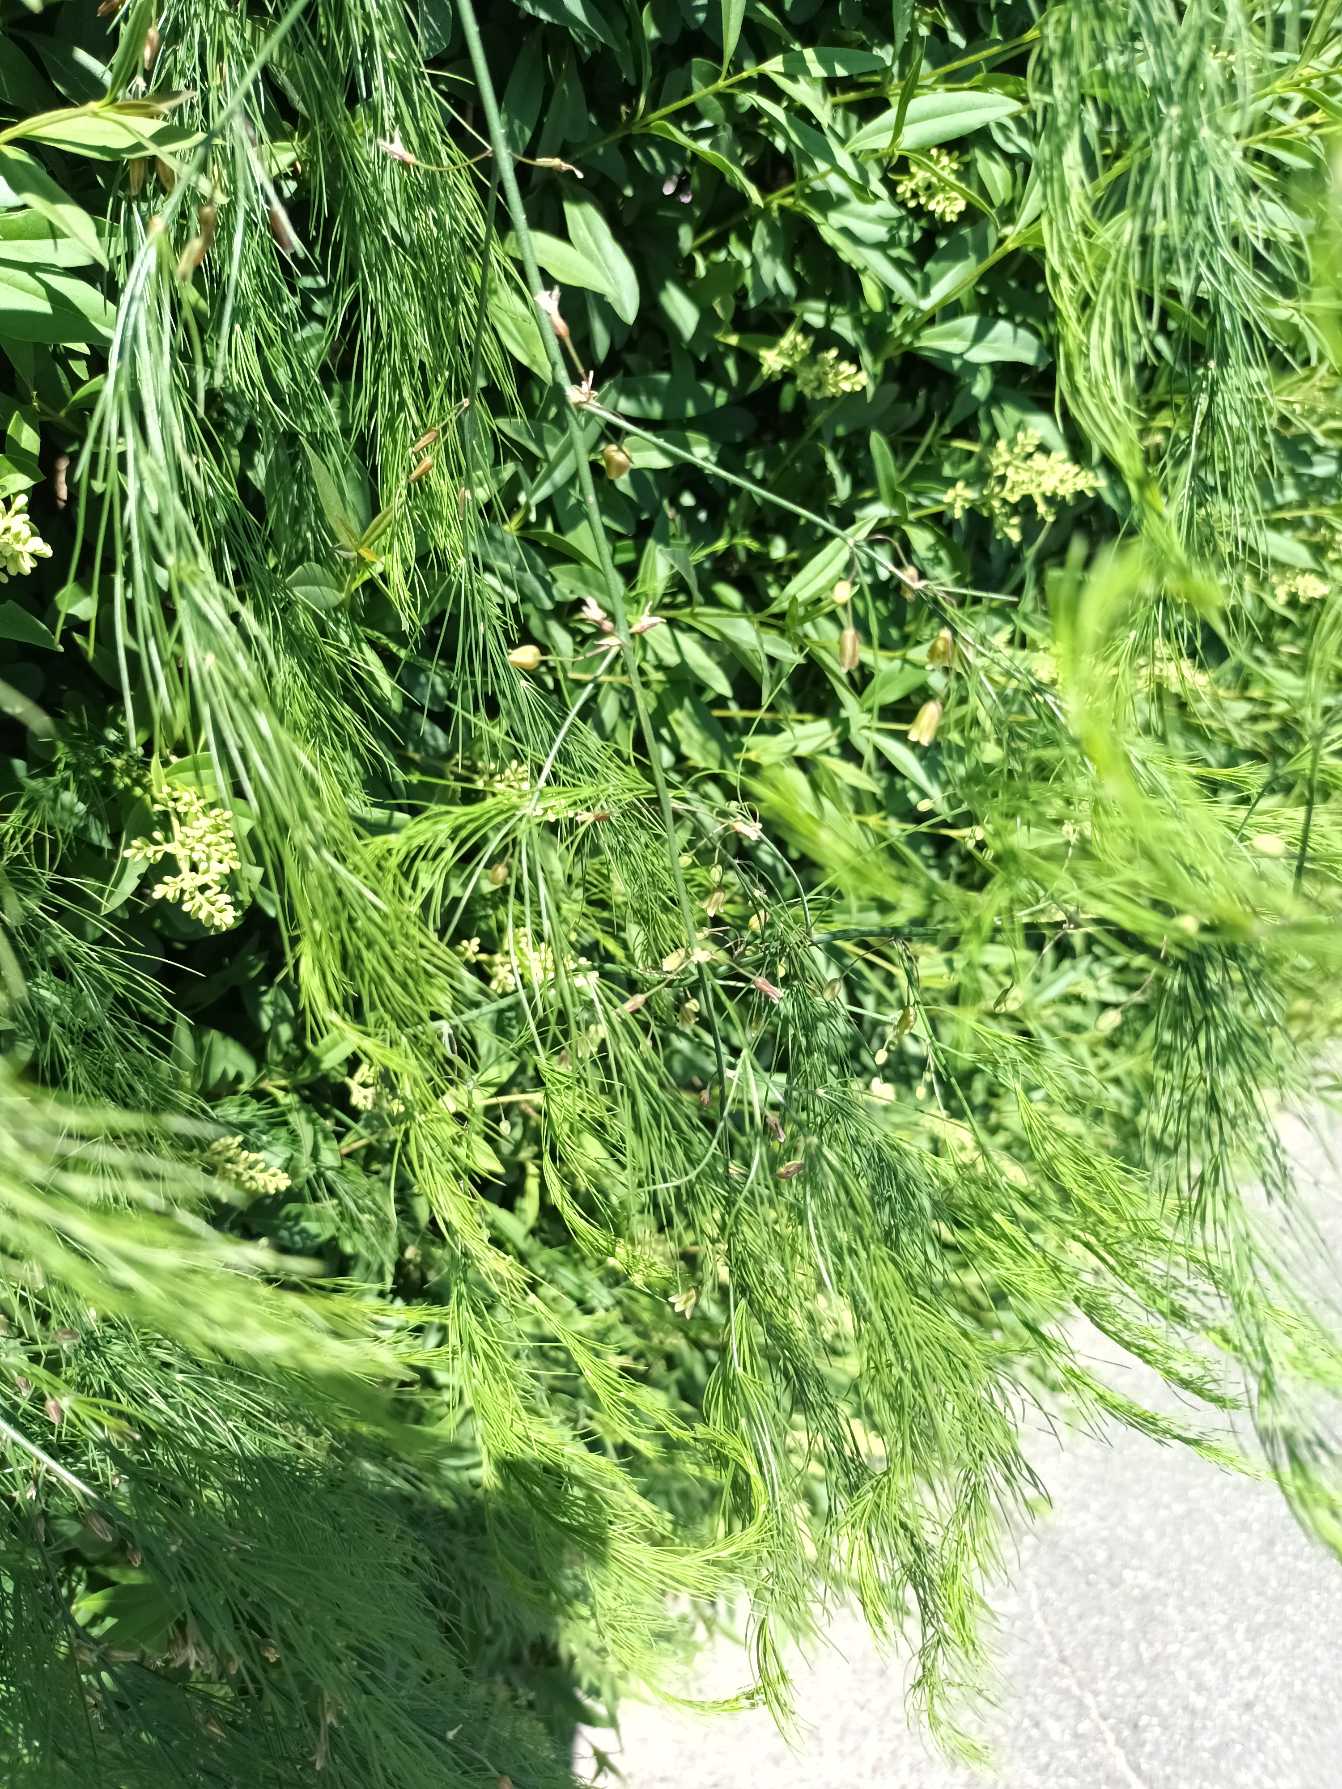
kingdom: Plantae
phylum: Tracheophyta
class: Liliopsida
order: Asparagales
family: Asparagaceae
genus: Asparagus
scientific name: Asparagus officinalis
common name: Asparges
